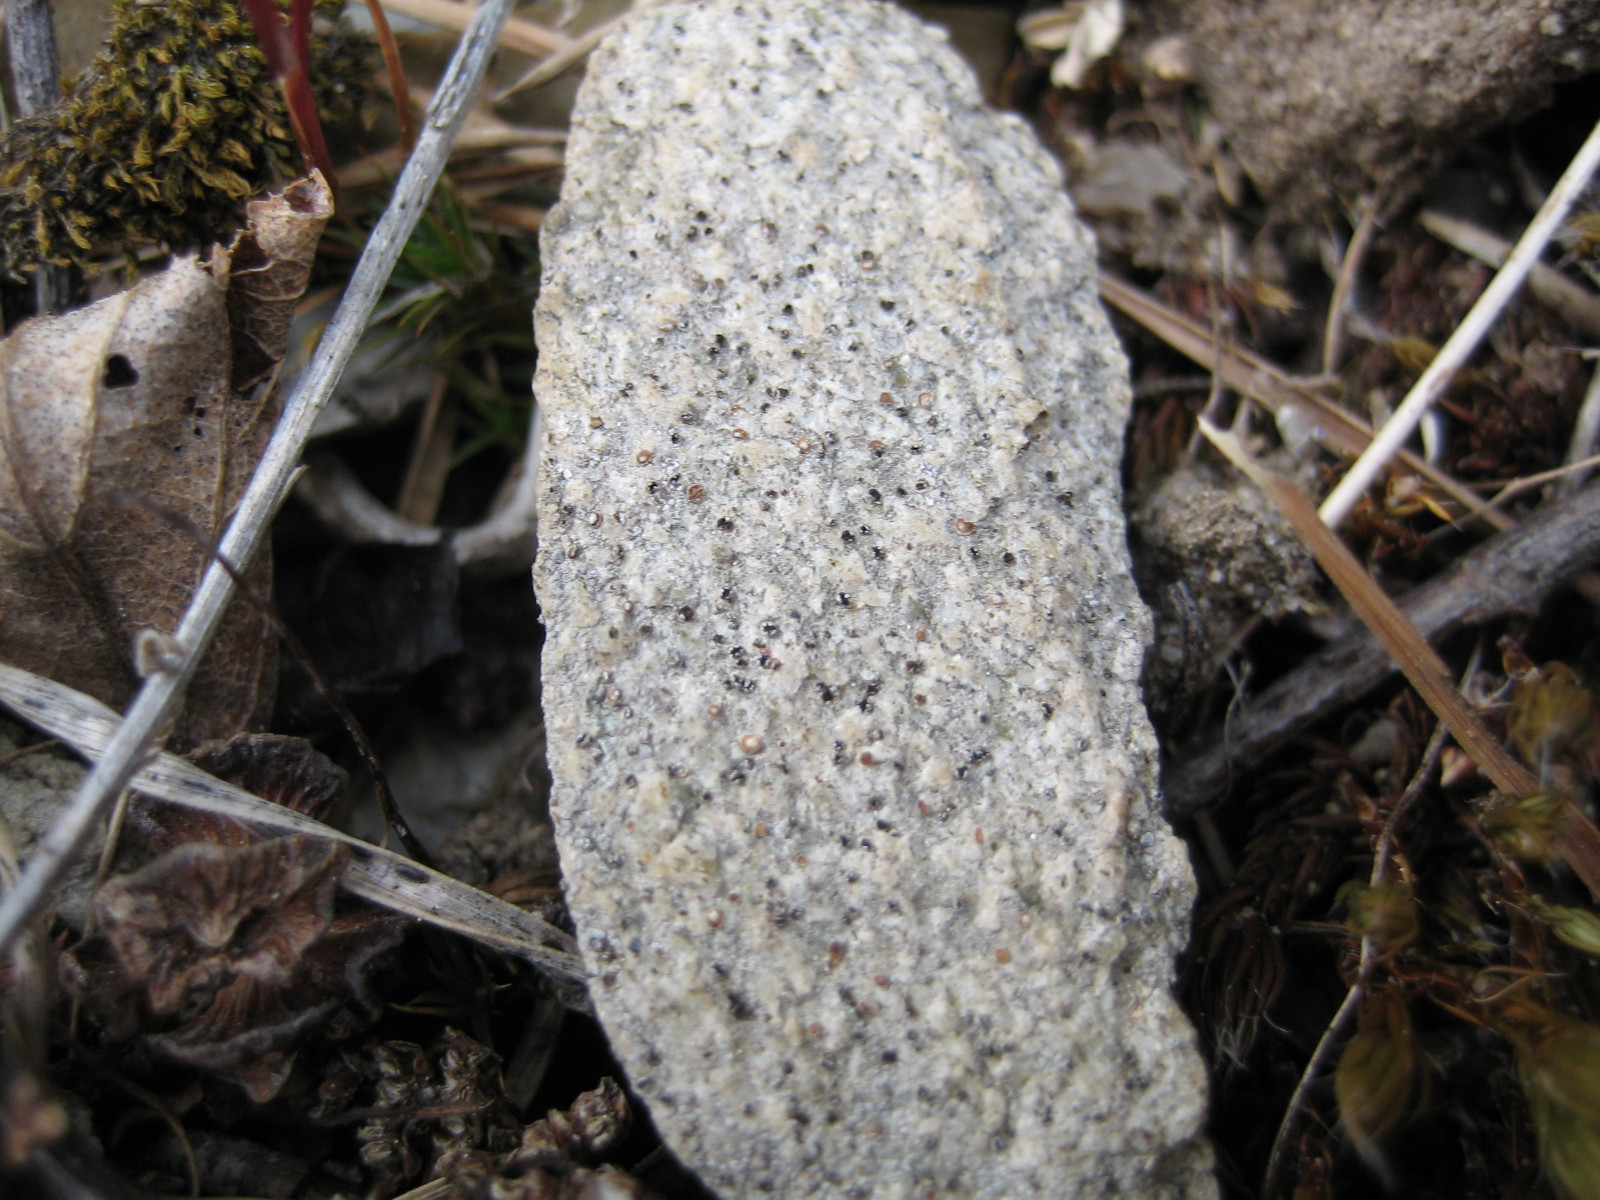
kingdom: Fungi
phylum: Ascomycota
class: Lecanoromycetes
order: Baeomycetales
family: Trapeliaceae
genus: Trapelia
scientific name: Trapelia coarctata
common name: hvidrandet brunskivelav
